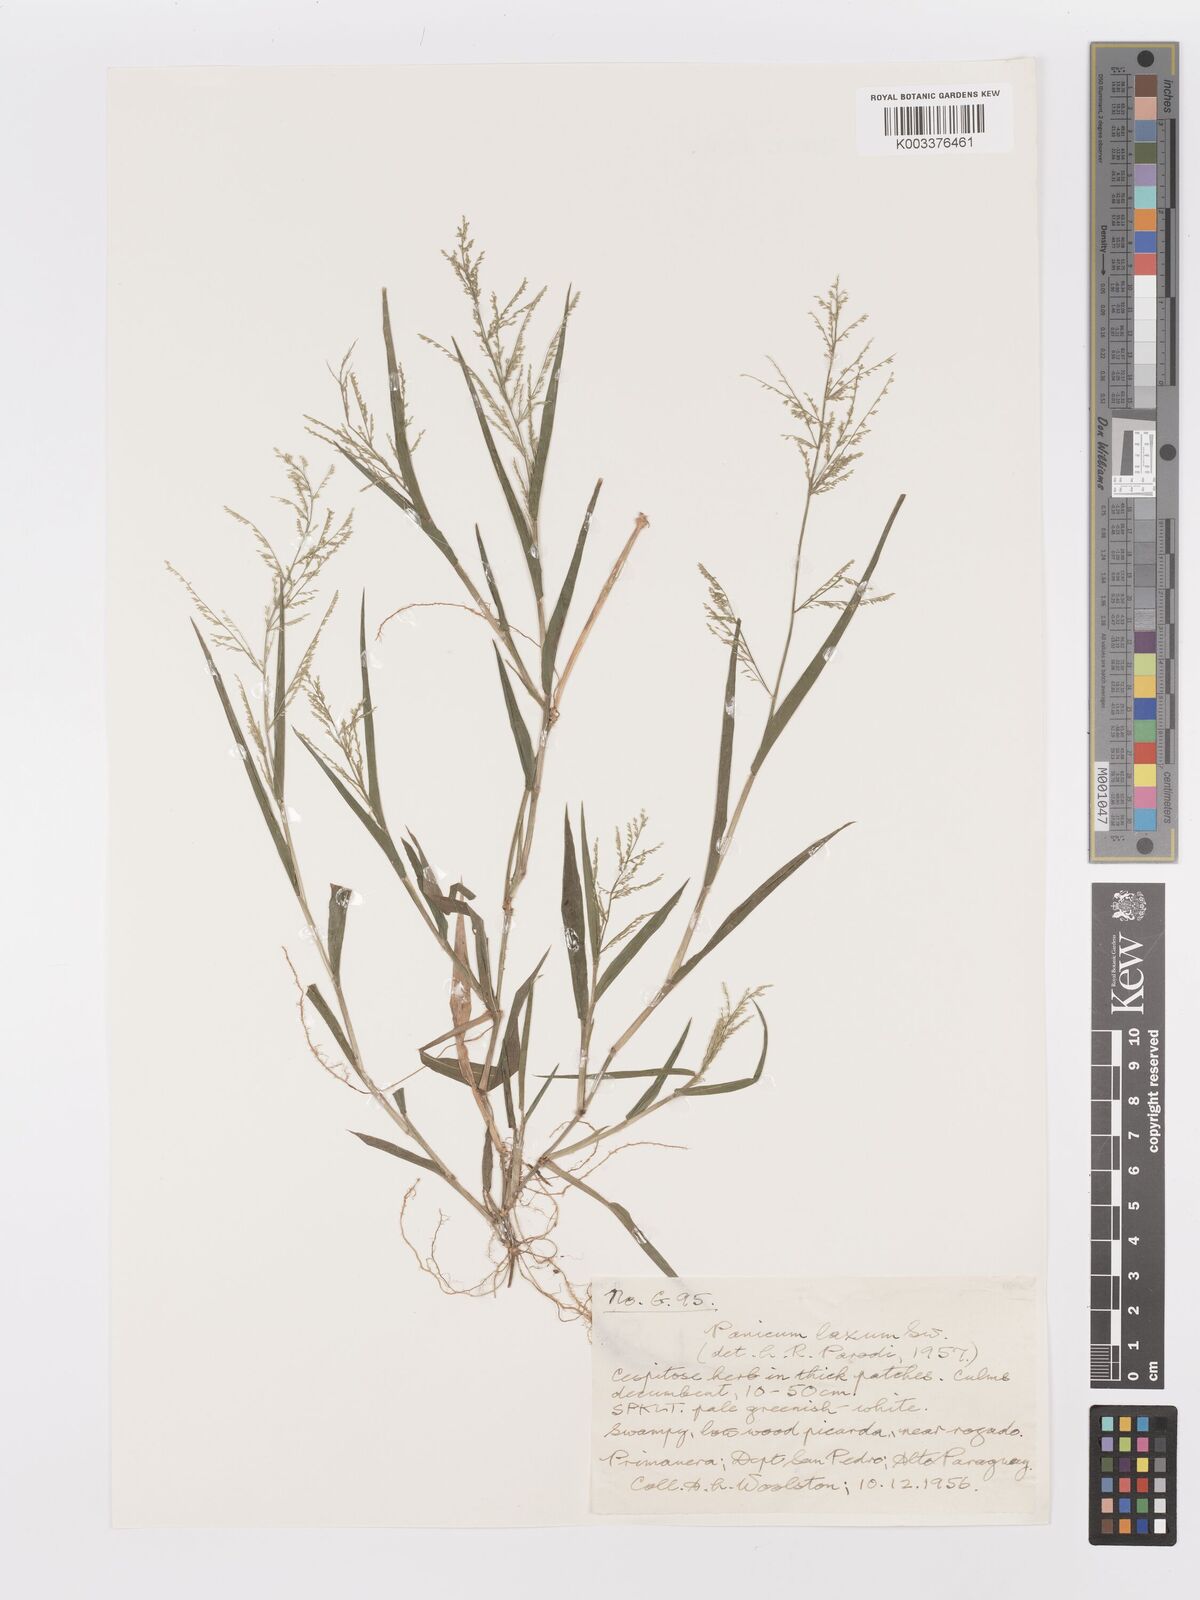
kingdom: Plantae
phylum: Tracheophyta
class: Liliopsida
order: Poales
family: Poaceae
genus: Rugoloa
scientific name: Rugoloa polygonata
